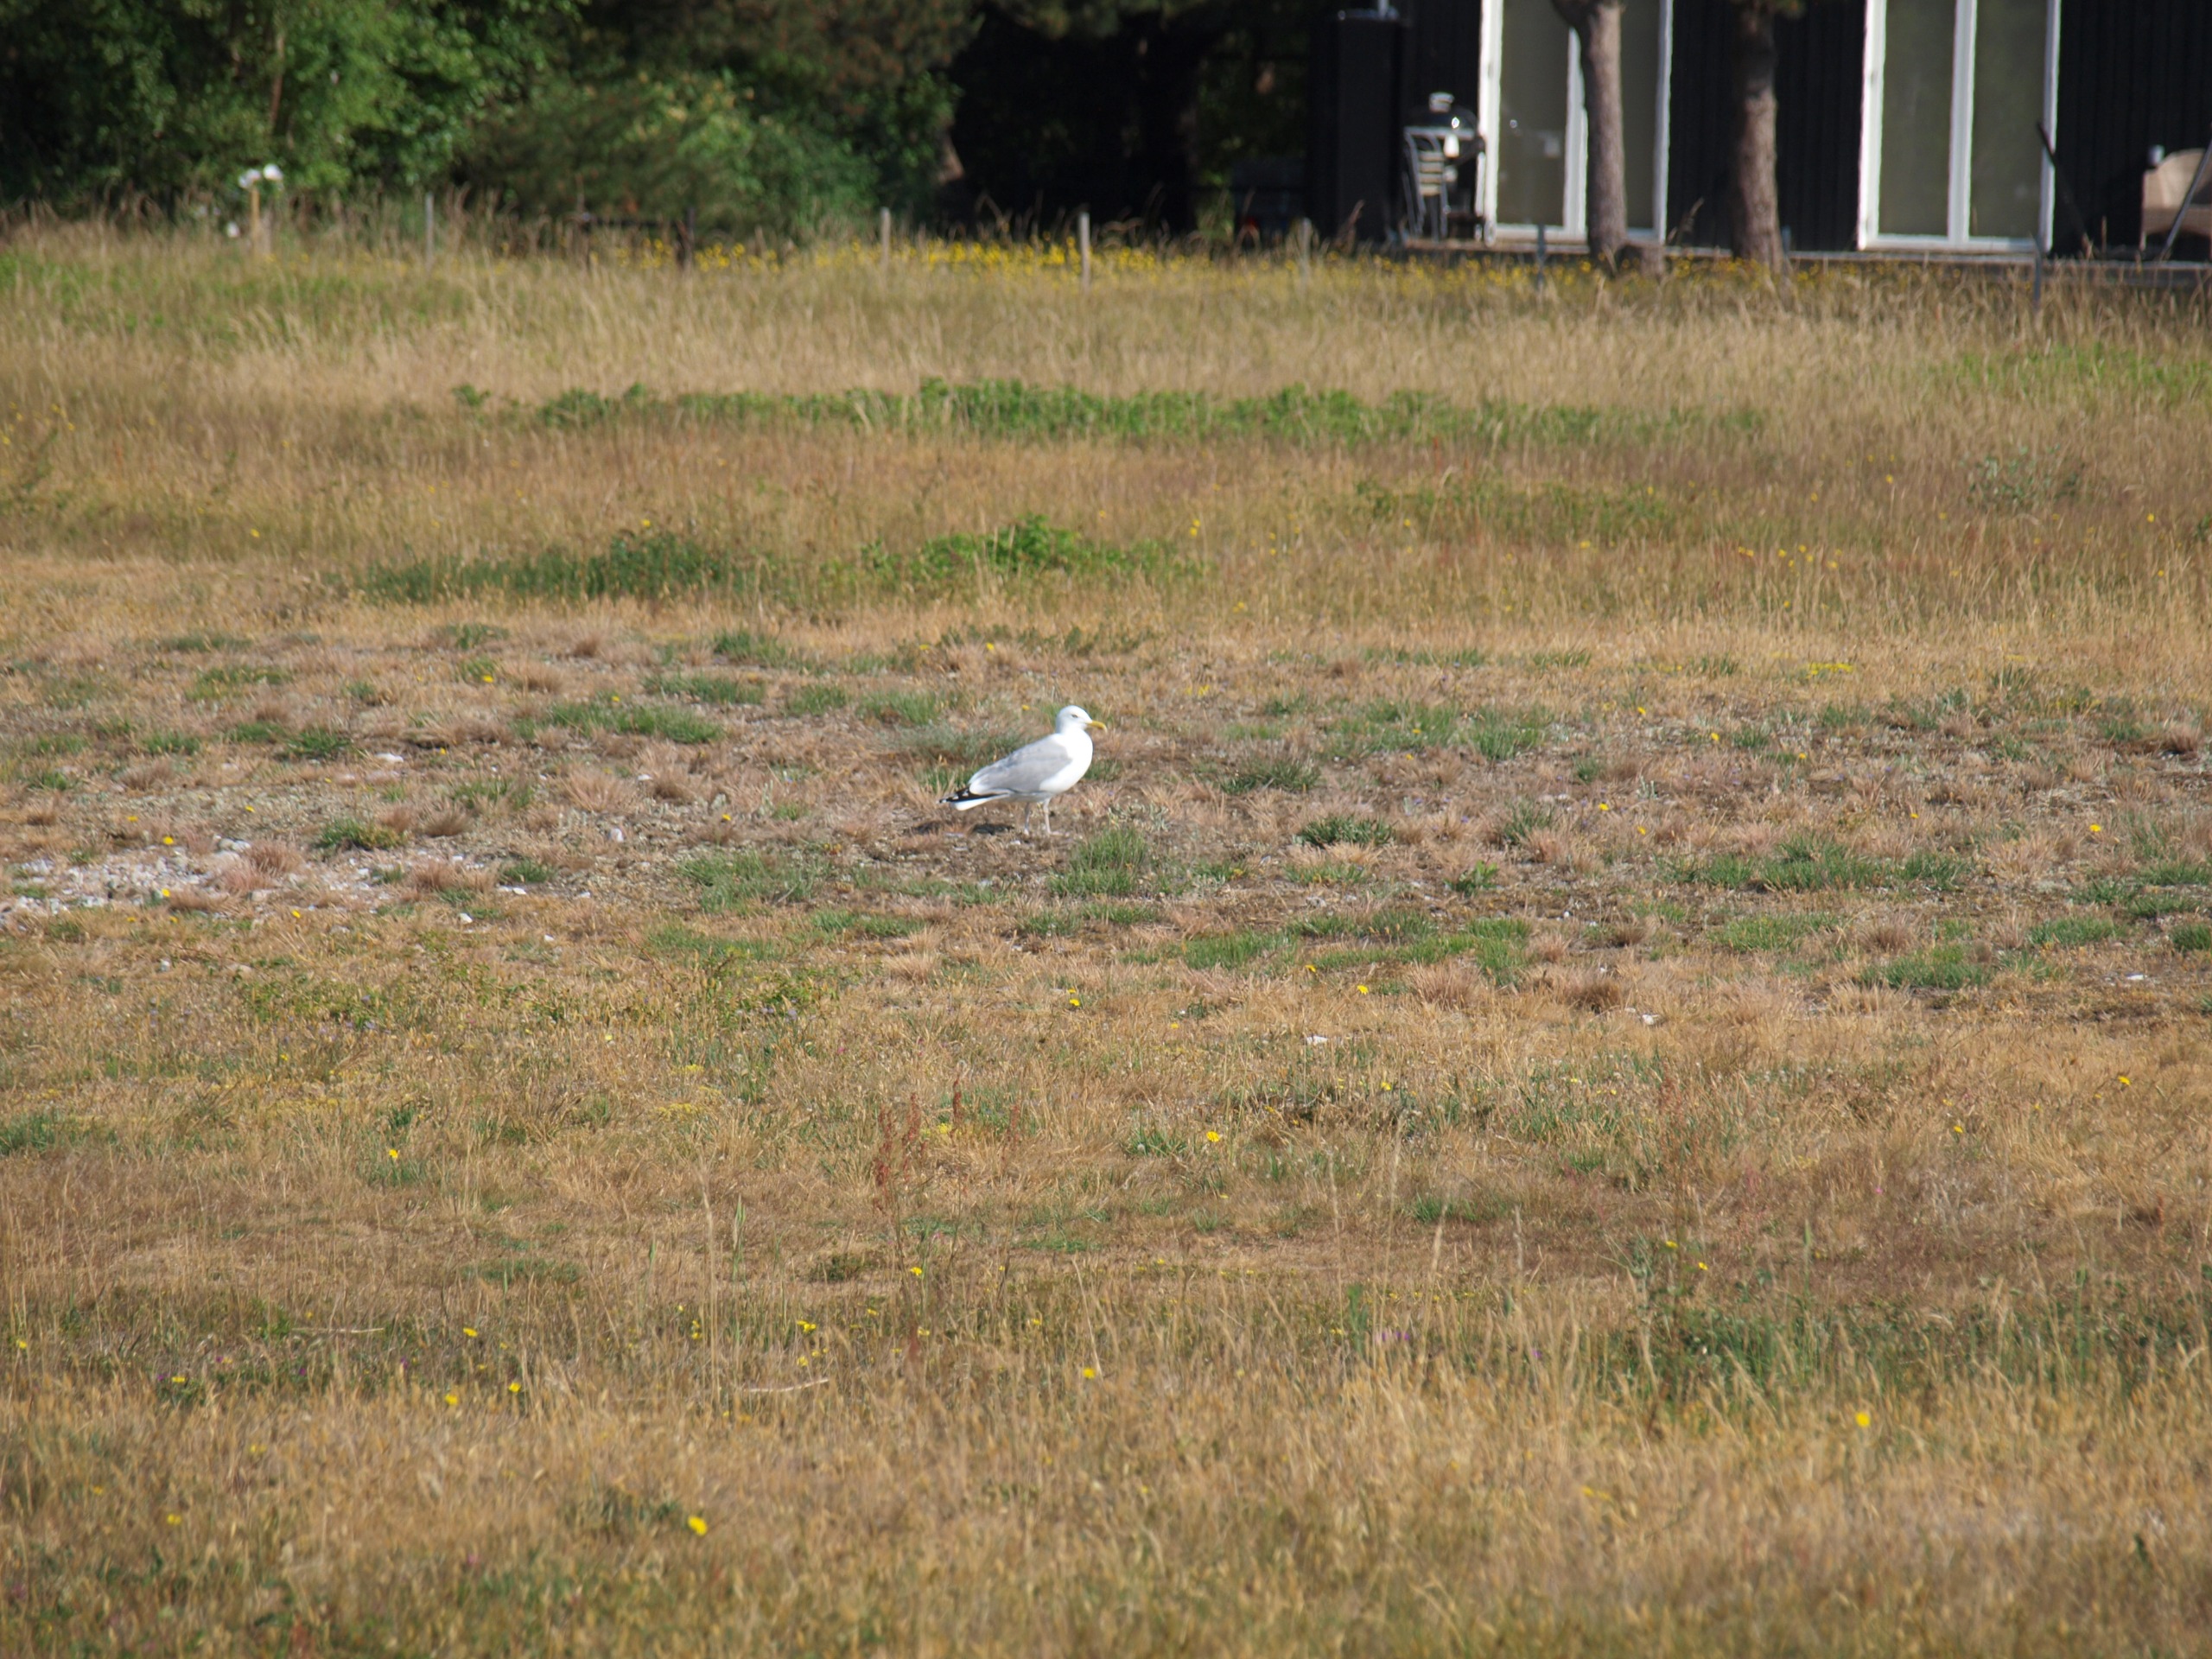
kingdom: Animalia
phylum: Chordata
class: Aves
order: Charadriiformes
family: Laridae
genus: Larus
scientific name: Larus argentatus
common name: Sølvmåge
